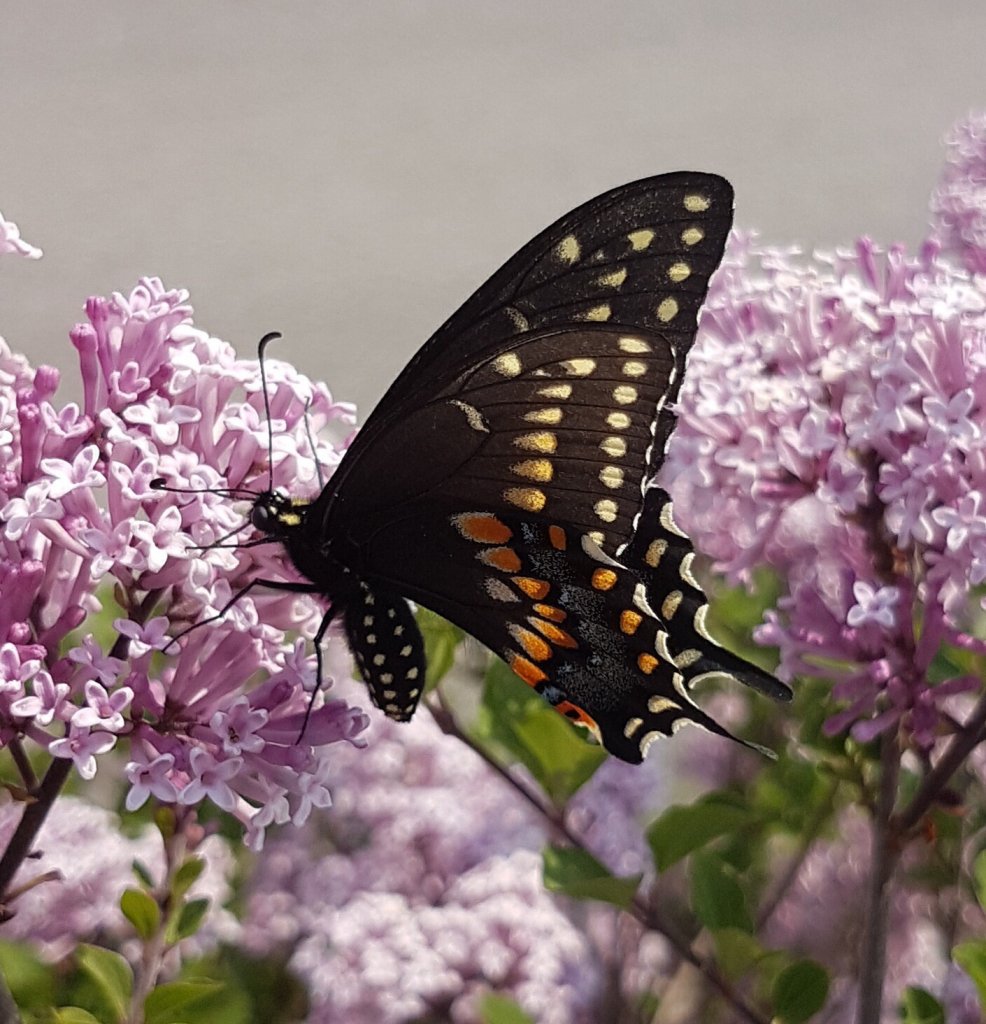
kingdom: Animalia
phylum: Arthropoda
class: Insecta
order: Lepidoptera
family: Papilionidae
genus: Papilio
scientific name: Papilio polyxenes
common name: Black Swallowtail
